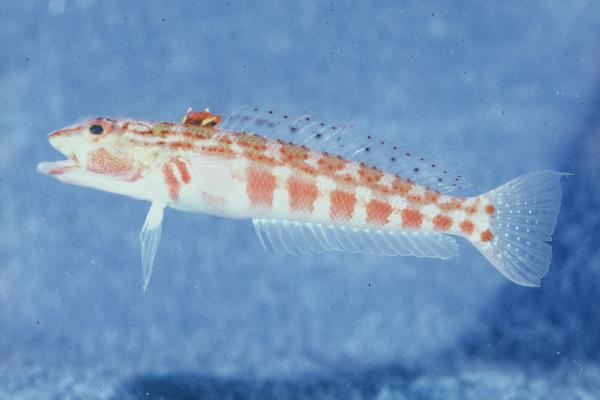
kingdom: Animalia
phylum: Chordata
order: Perciformes
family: Pinguipedidae
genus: Parapercis
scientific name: Parapercis schauinslandii
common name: Redspotted sandperch
